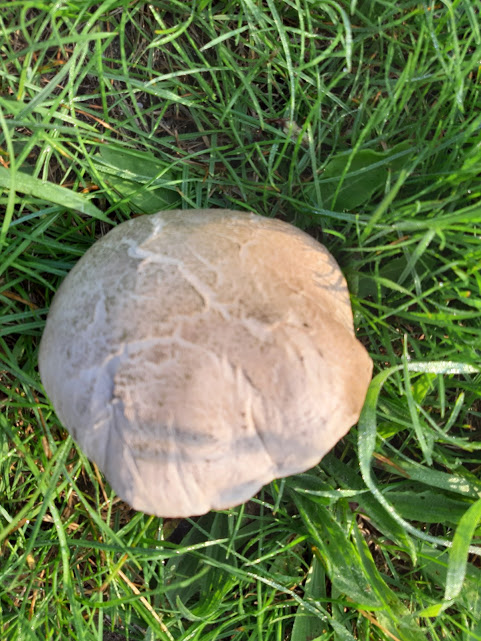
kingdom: Fungi
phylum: Basidiomycota
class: Agaricomycetes
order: Agaricales
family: Agaricaceae
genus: Agaricus
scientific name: Agaricus bernardii
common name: strandengs-champignon
